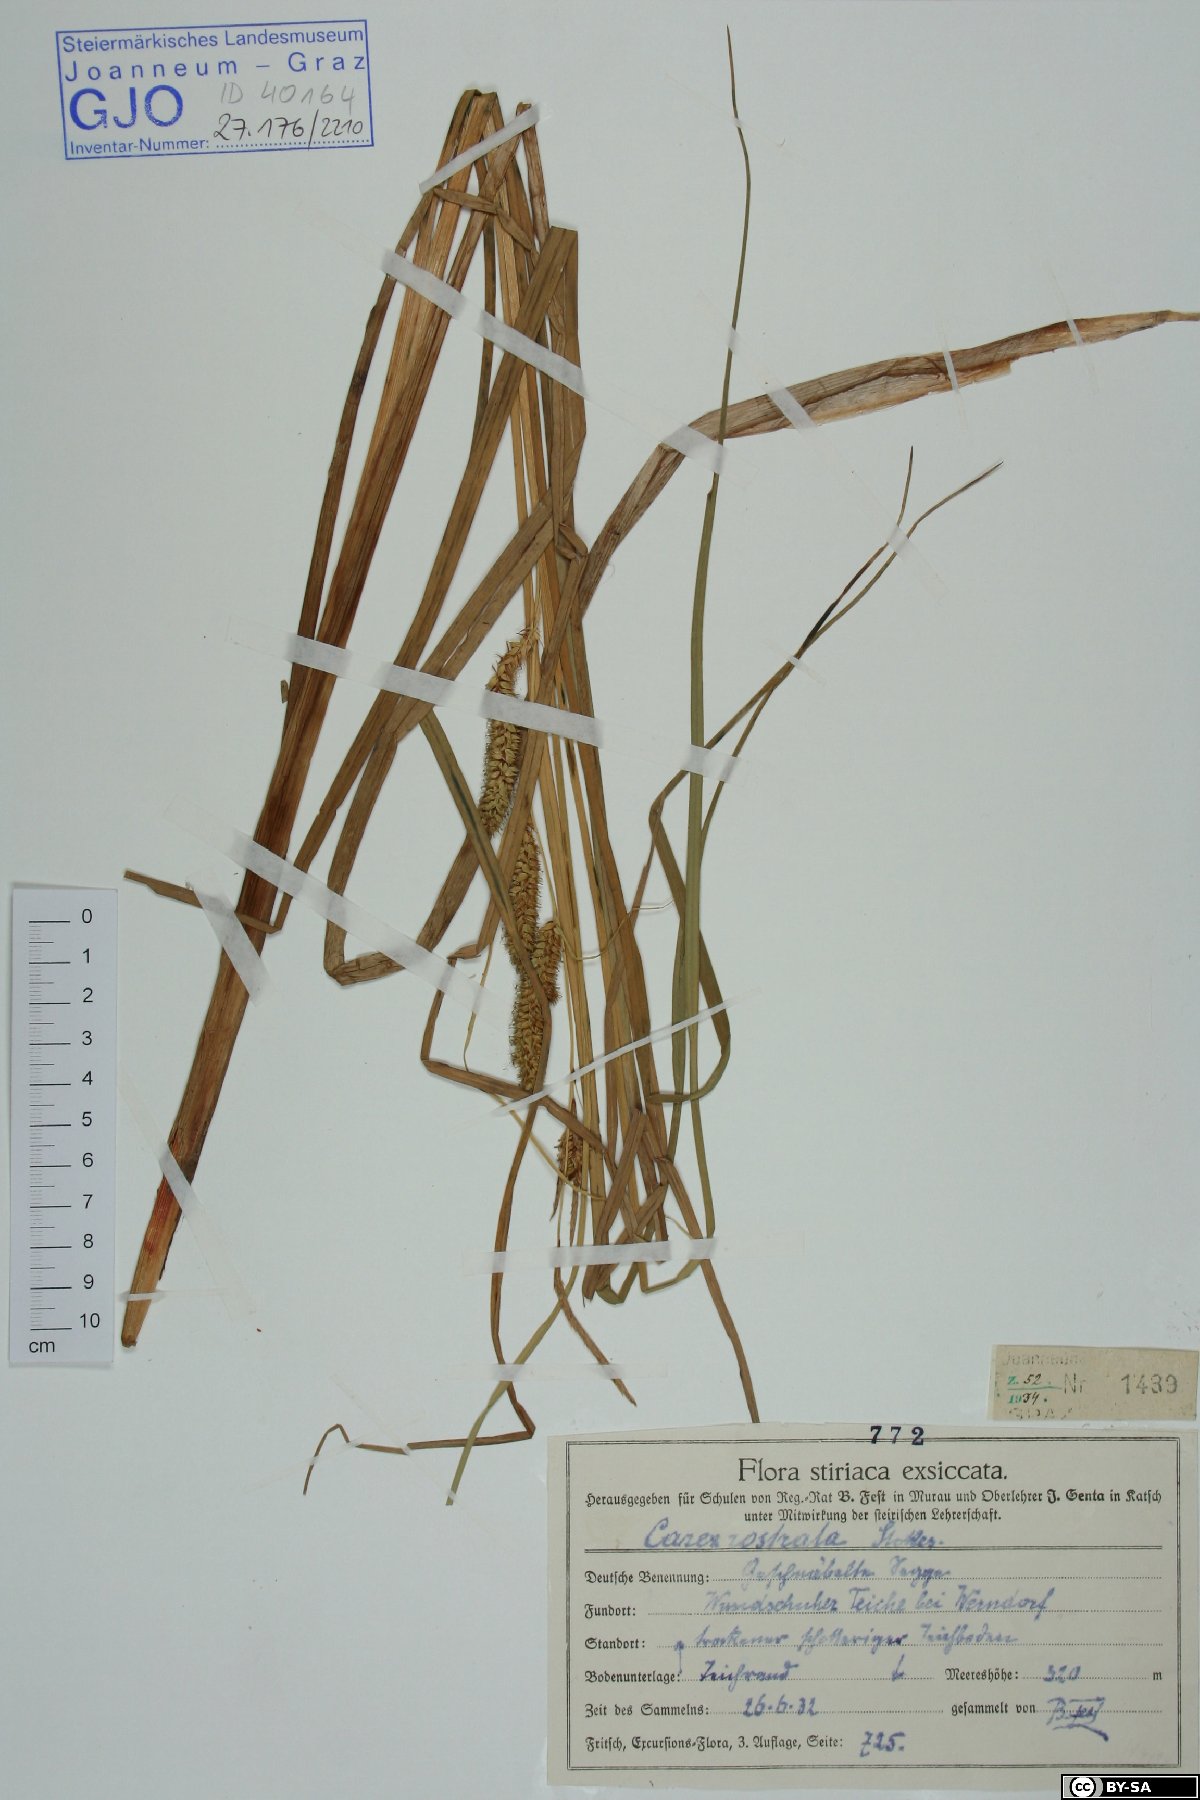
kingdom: Plantae
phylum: Tracheophyta
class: Liliopsida
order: Poales
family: Cyperaceae
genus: Carex
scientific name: Carex rostrata
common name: Bottle sedge
